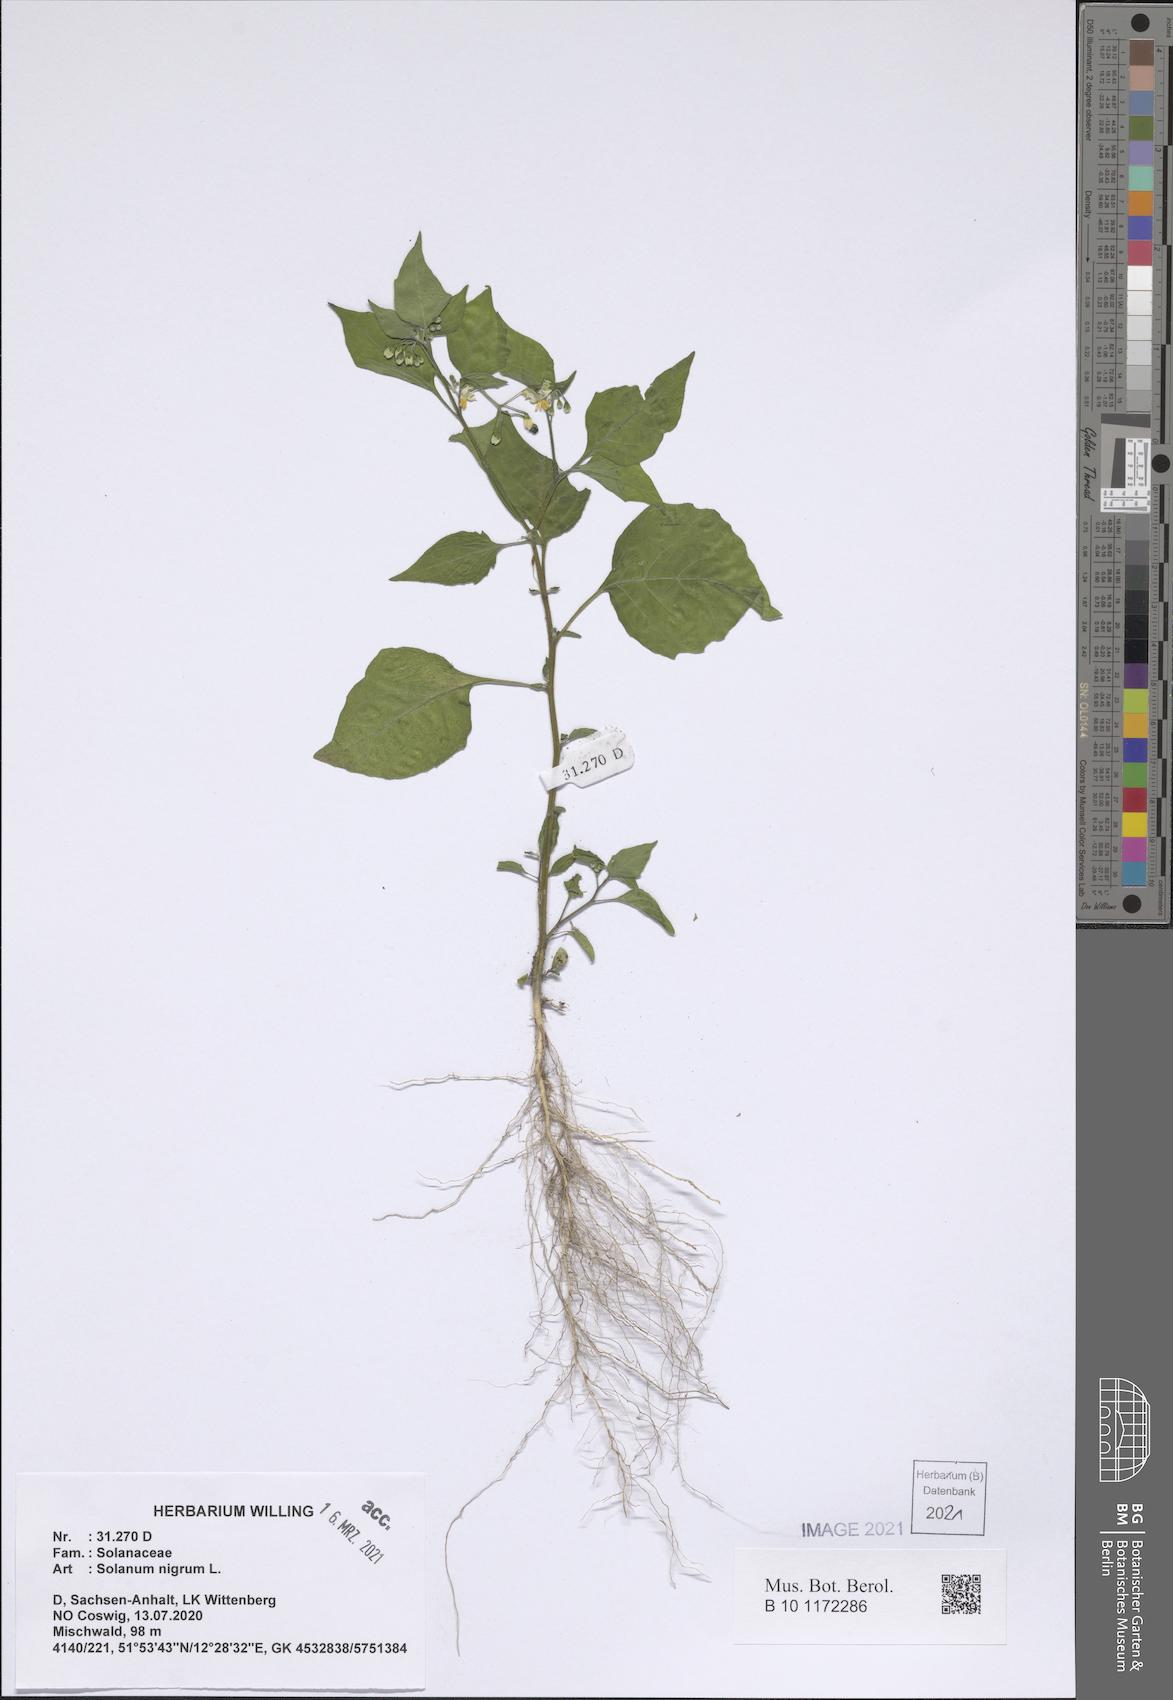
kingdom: Plantae
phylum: Tracheophyta
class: Magnoliopsida
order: Solanales
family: Solanaceae
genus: Solanum
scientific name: Solanum nigrum
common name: Black nightshade
